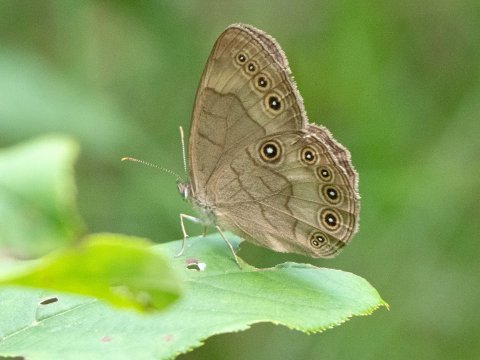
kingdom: Animalia
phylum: Arthropoda
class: Insecta
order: Lepidoptera
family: Nymphalidae
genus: Lethe
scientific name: Lethe eurydice
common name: Appalachian Eyed Brown
